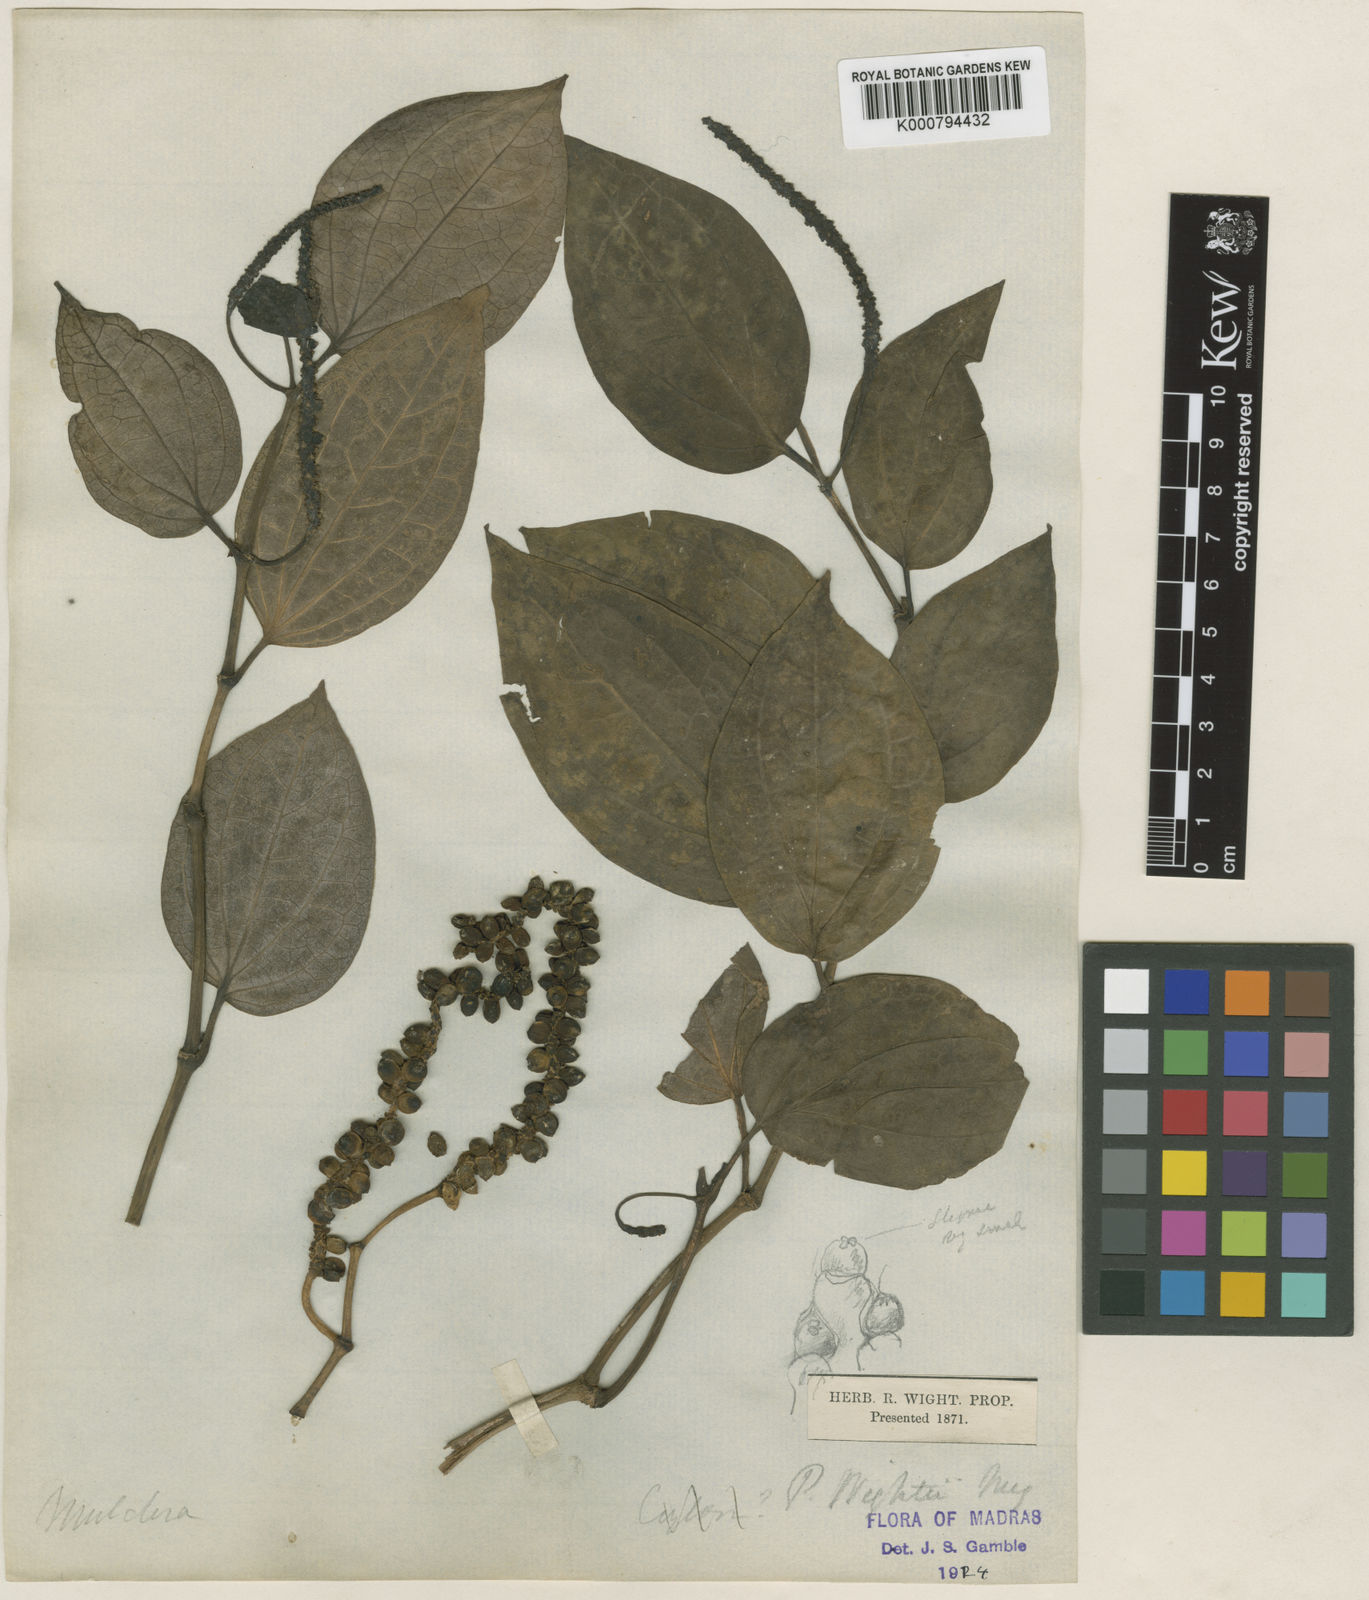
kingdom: Plantae
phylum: Tracheophyta
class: Magnoliopsida
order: Piperales
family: Piperaceae
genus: Piper
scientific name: Piper wightii
